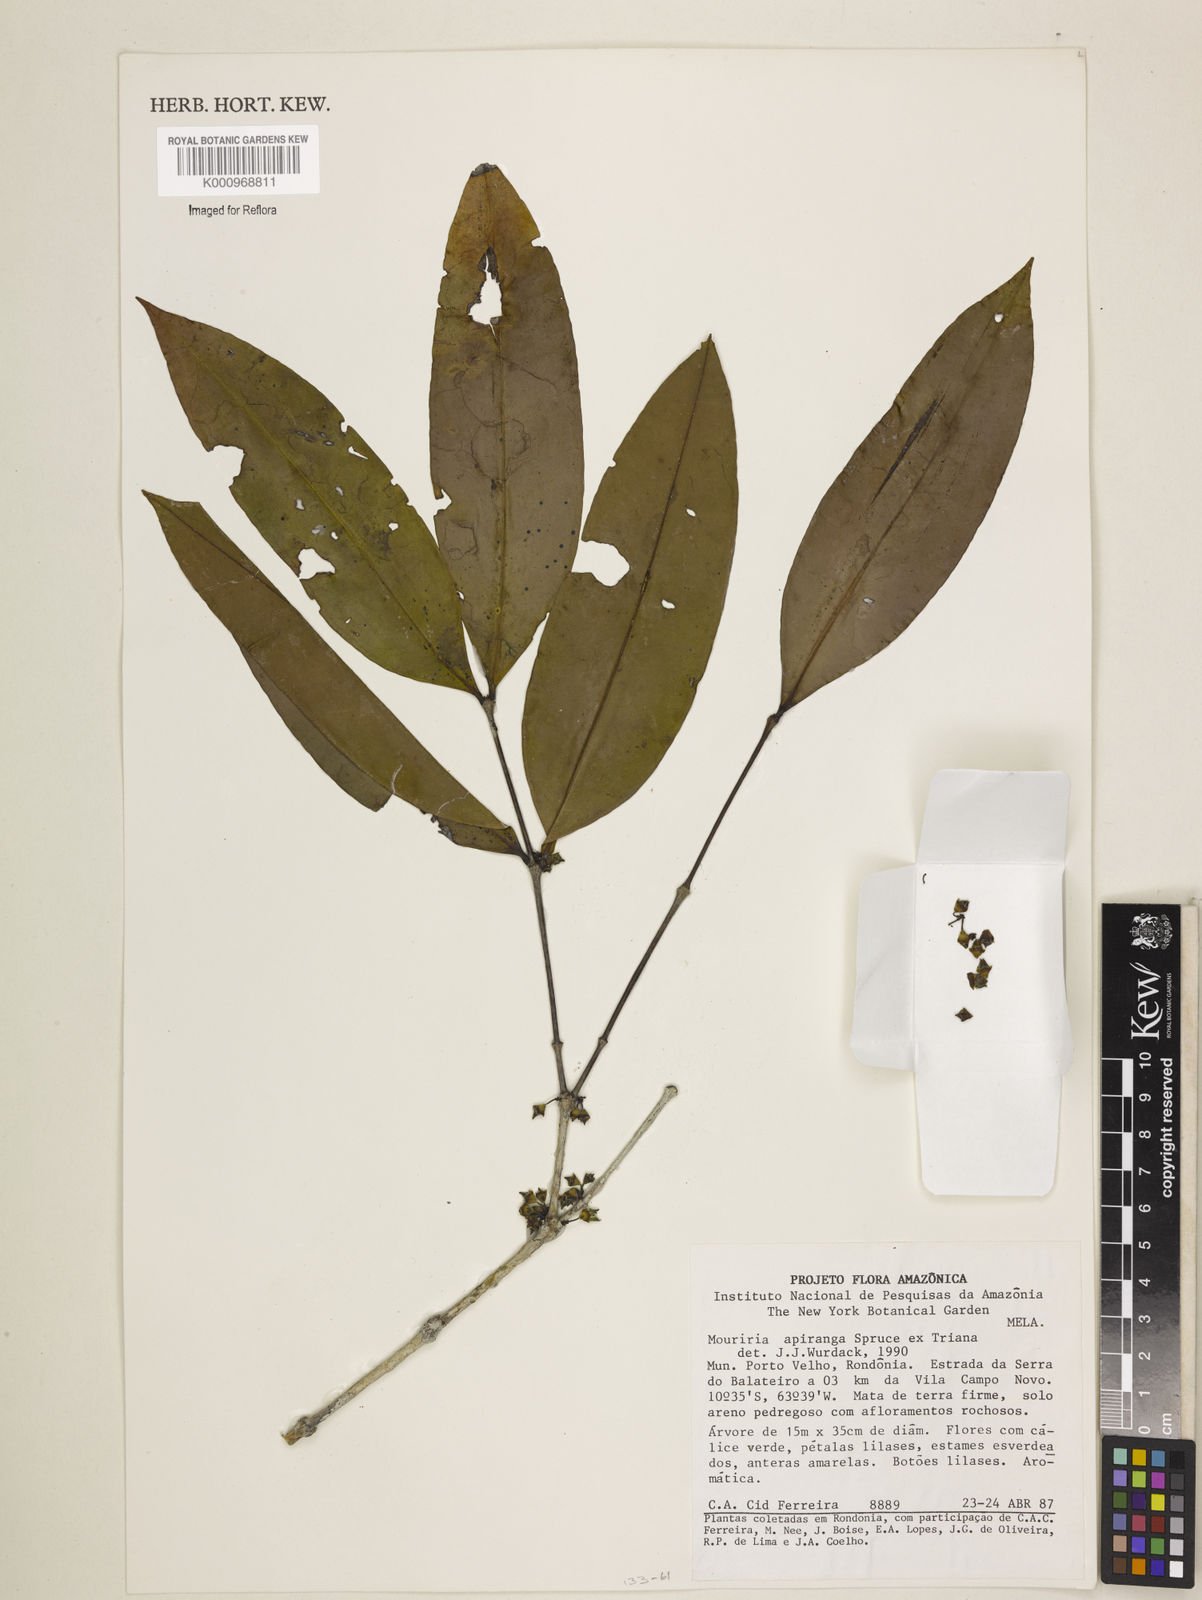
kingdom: Plantae
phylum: Tracheophyta
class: Magnoliopsida
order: Myrtales
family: Melastomataceae
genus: Mouriri
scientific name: Mouriri apiranga
